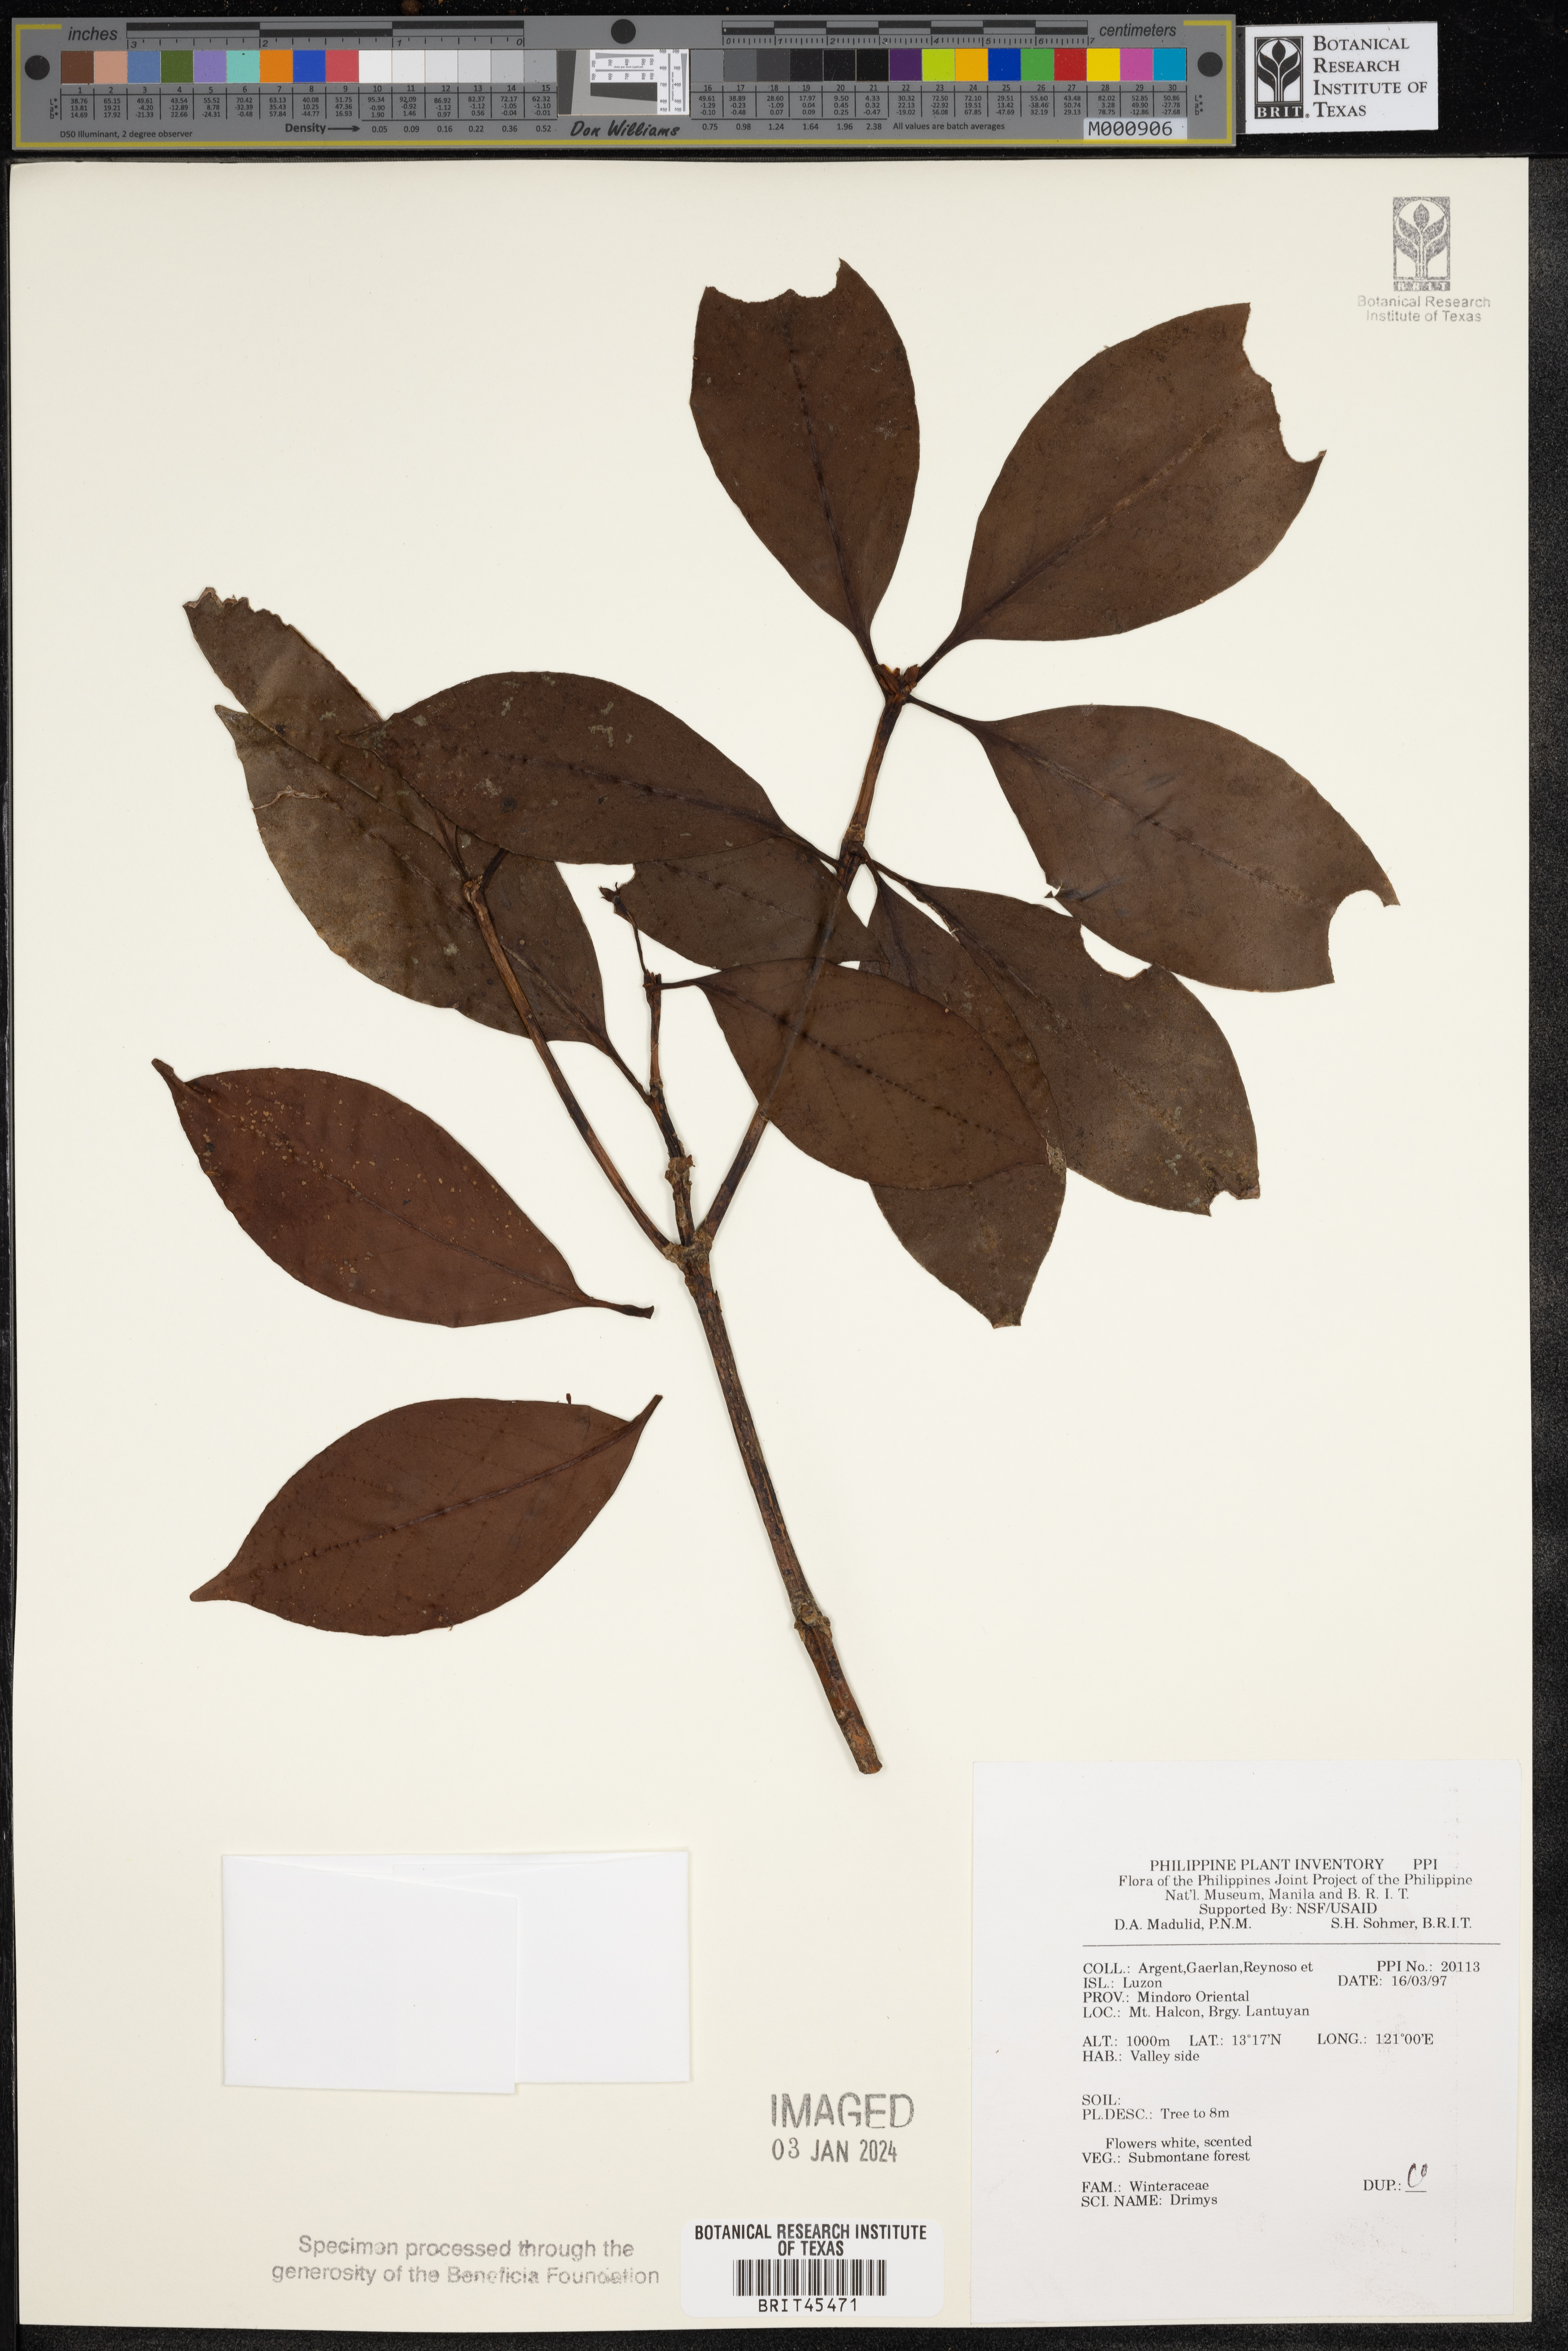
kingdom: Plantae
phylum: Tracheophyta
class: Magnoliopsida
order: Canellales
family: Winteraceae
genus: Drimys
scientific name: Drimys
